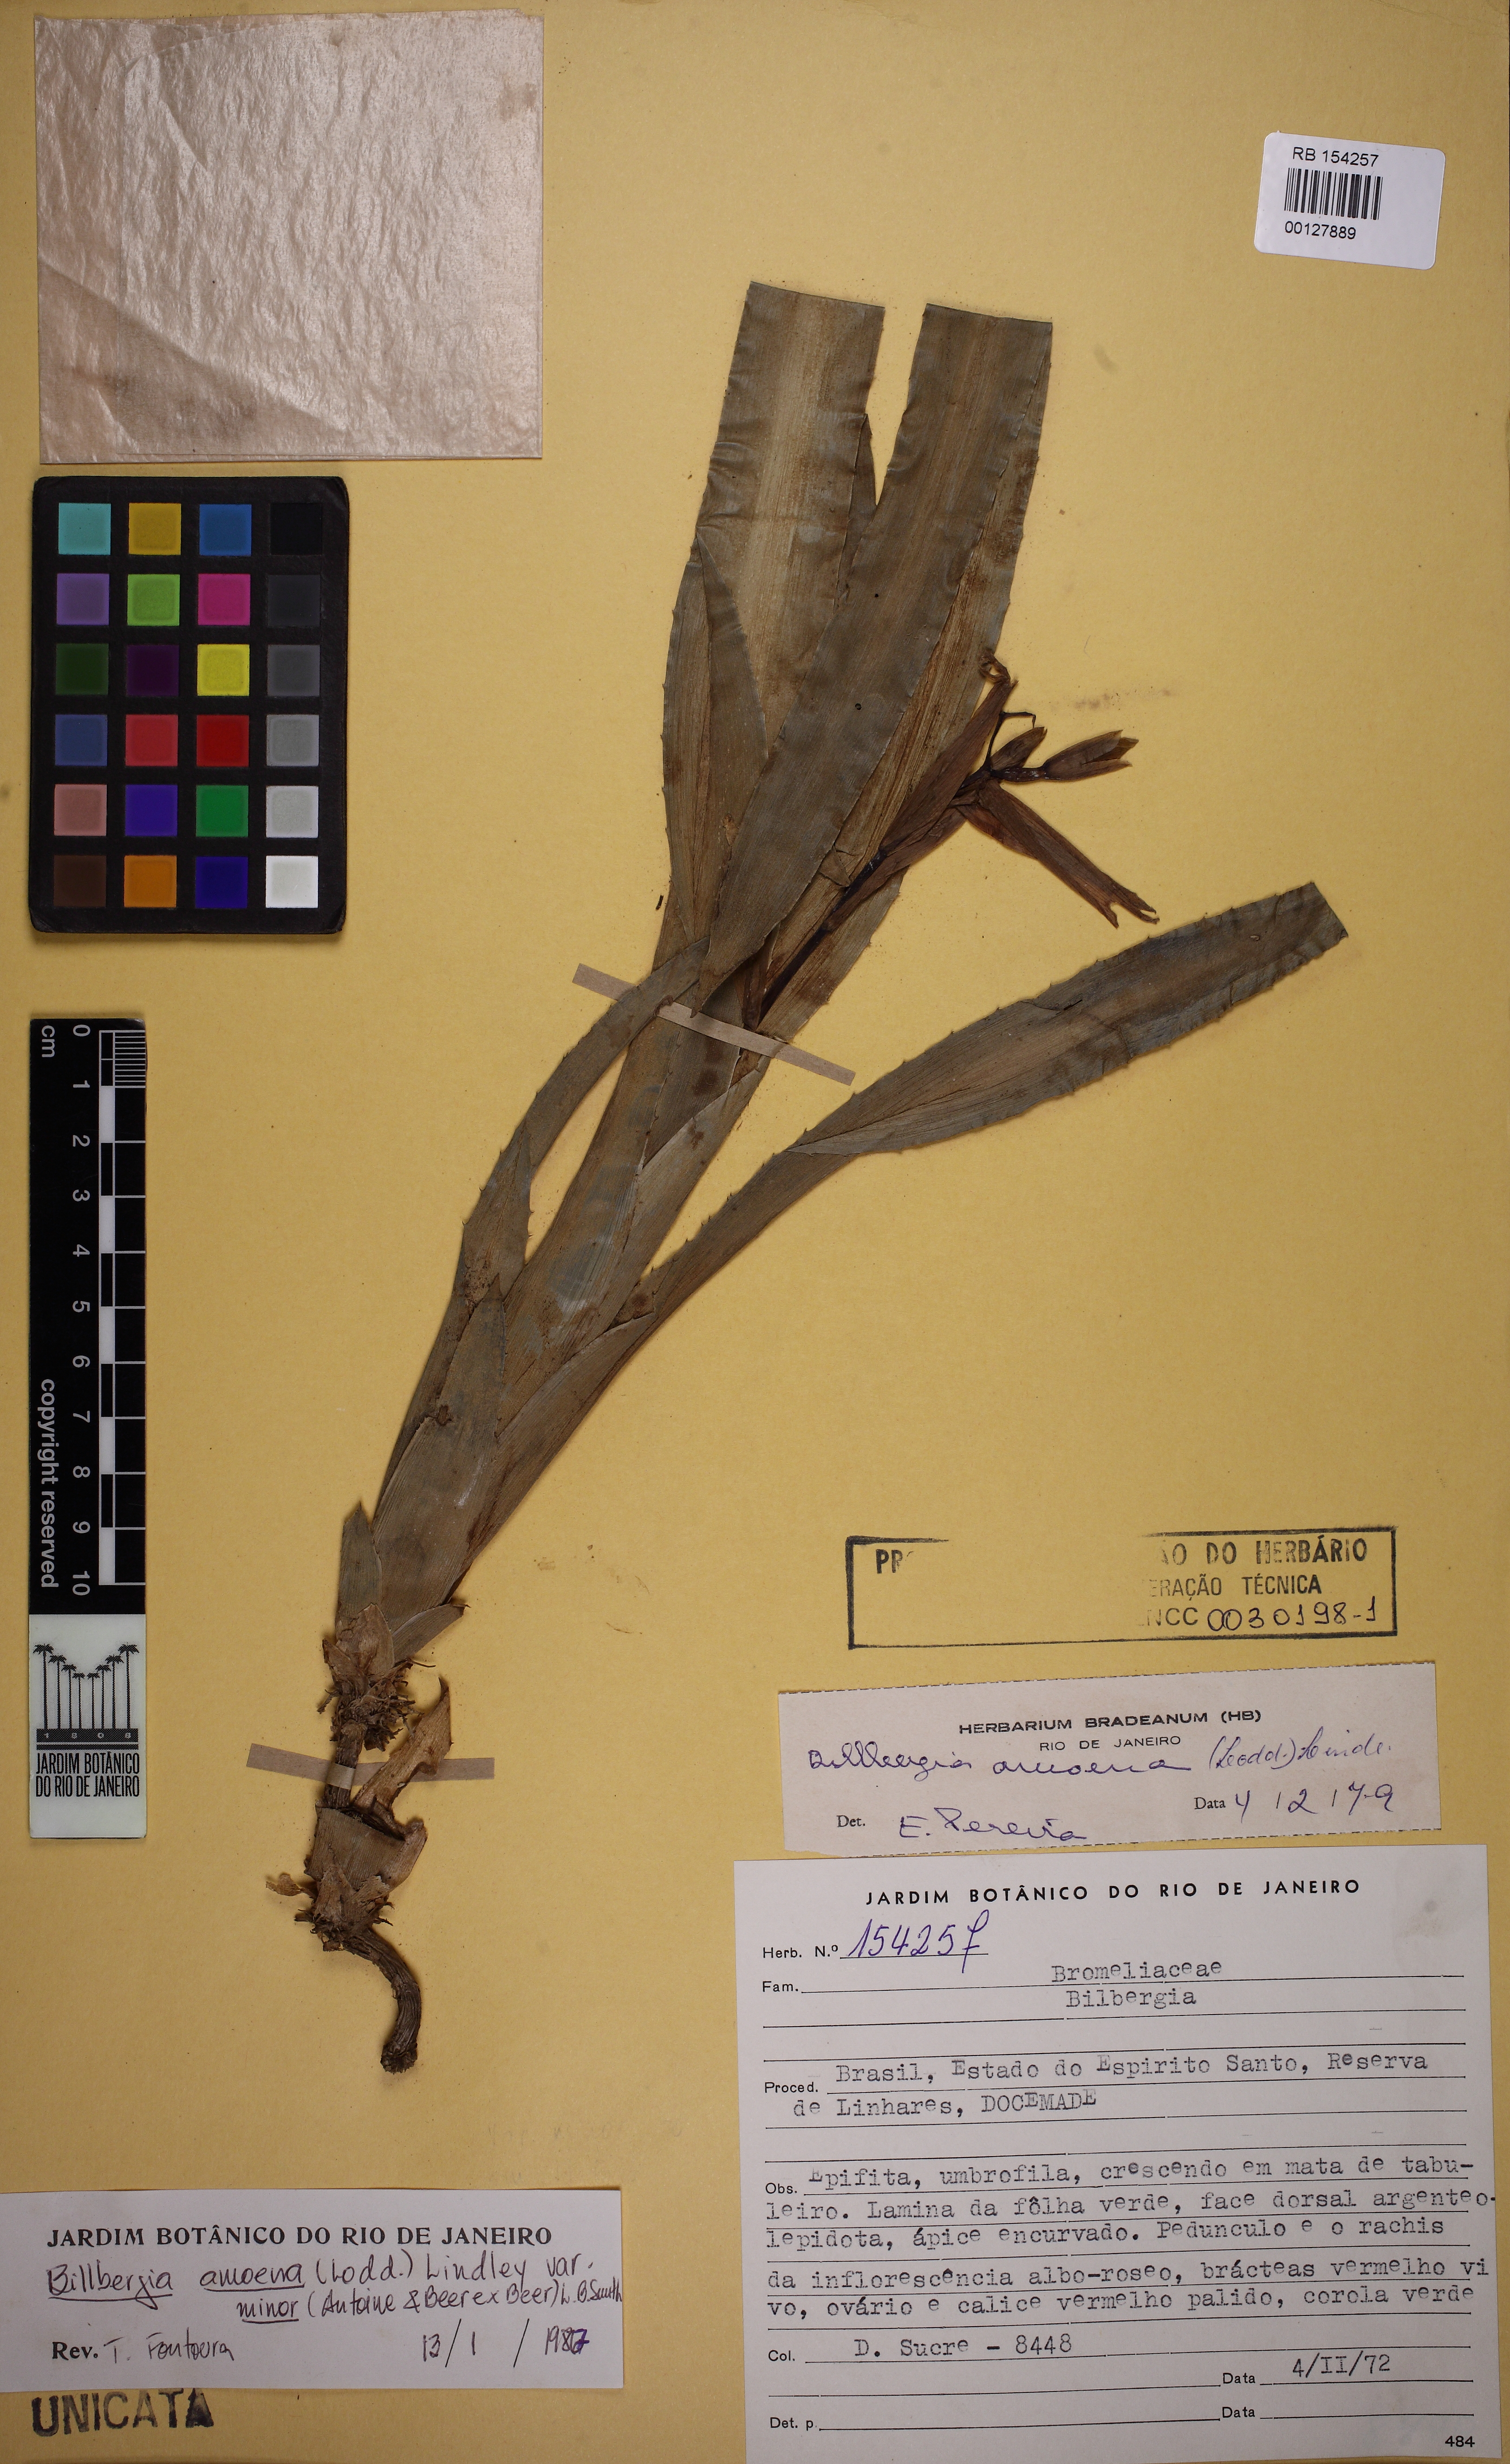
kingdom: Plantae
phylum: Tracheophyta
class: Liliopsida
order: Poales
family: Bromeliaceae
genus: Billbergia
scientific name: Billbergia amoena
